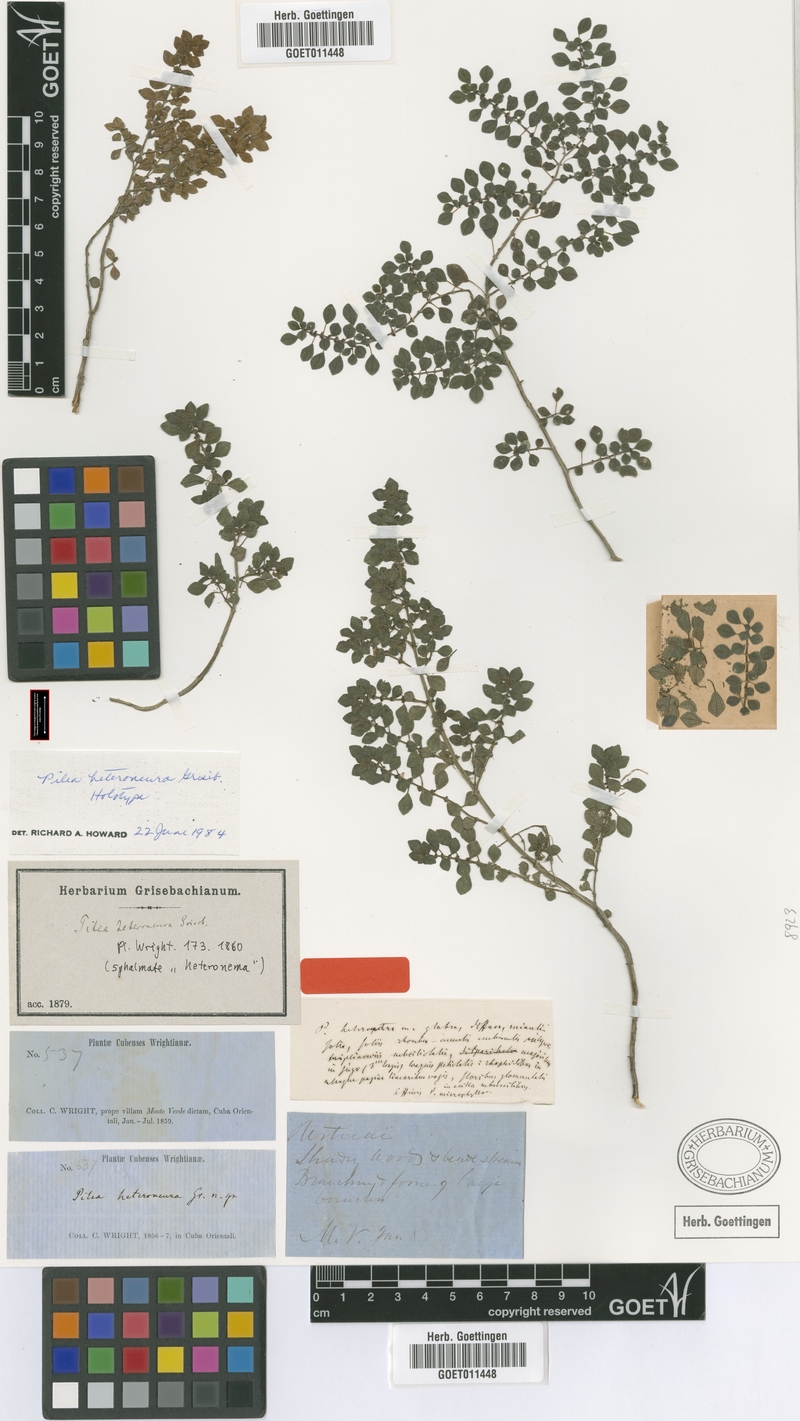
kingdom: Plantae
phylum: Tracheophyta
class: Magnoliopsida
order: Rosales
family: Urticaceae
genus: Pilea
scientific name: Pilea heteroneura
